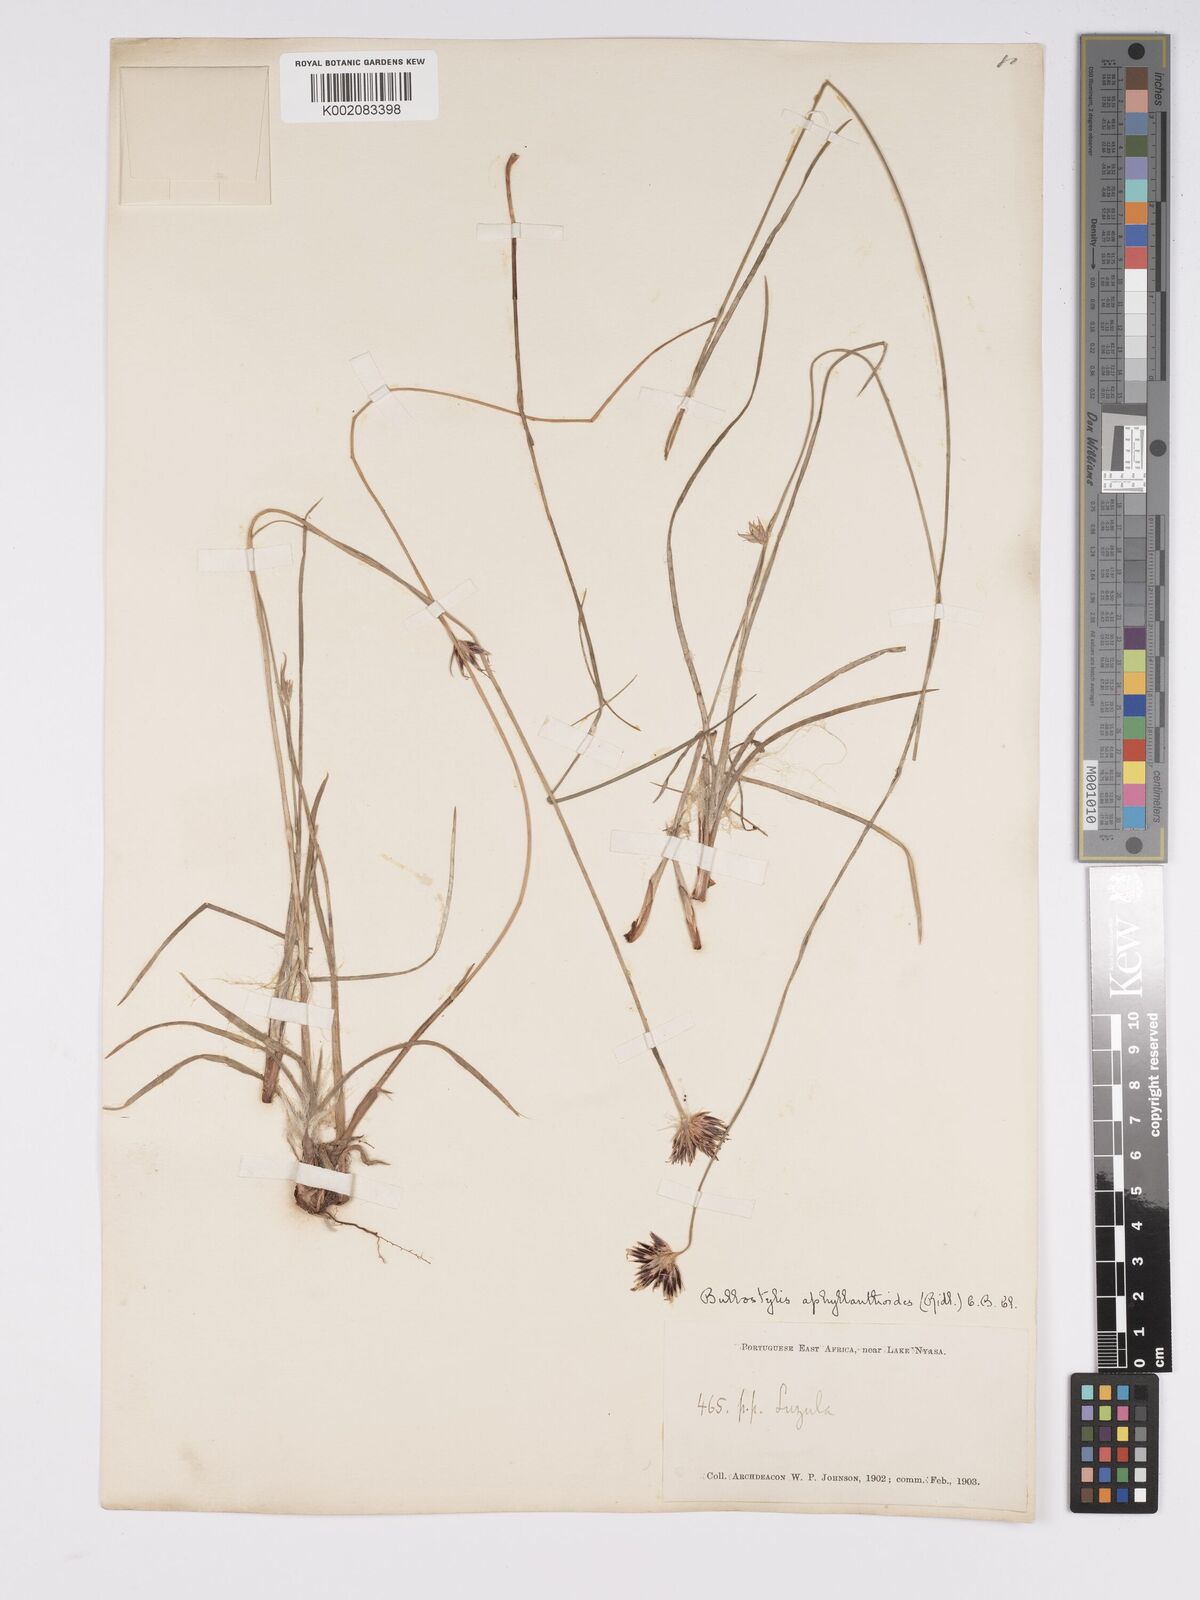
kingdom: Plantae
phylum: Tracheophyta
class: Liliopsida
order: Poales
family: Cyperaceae
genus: Bulbostylis
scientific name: Bulbostylis pilosa
